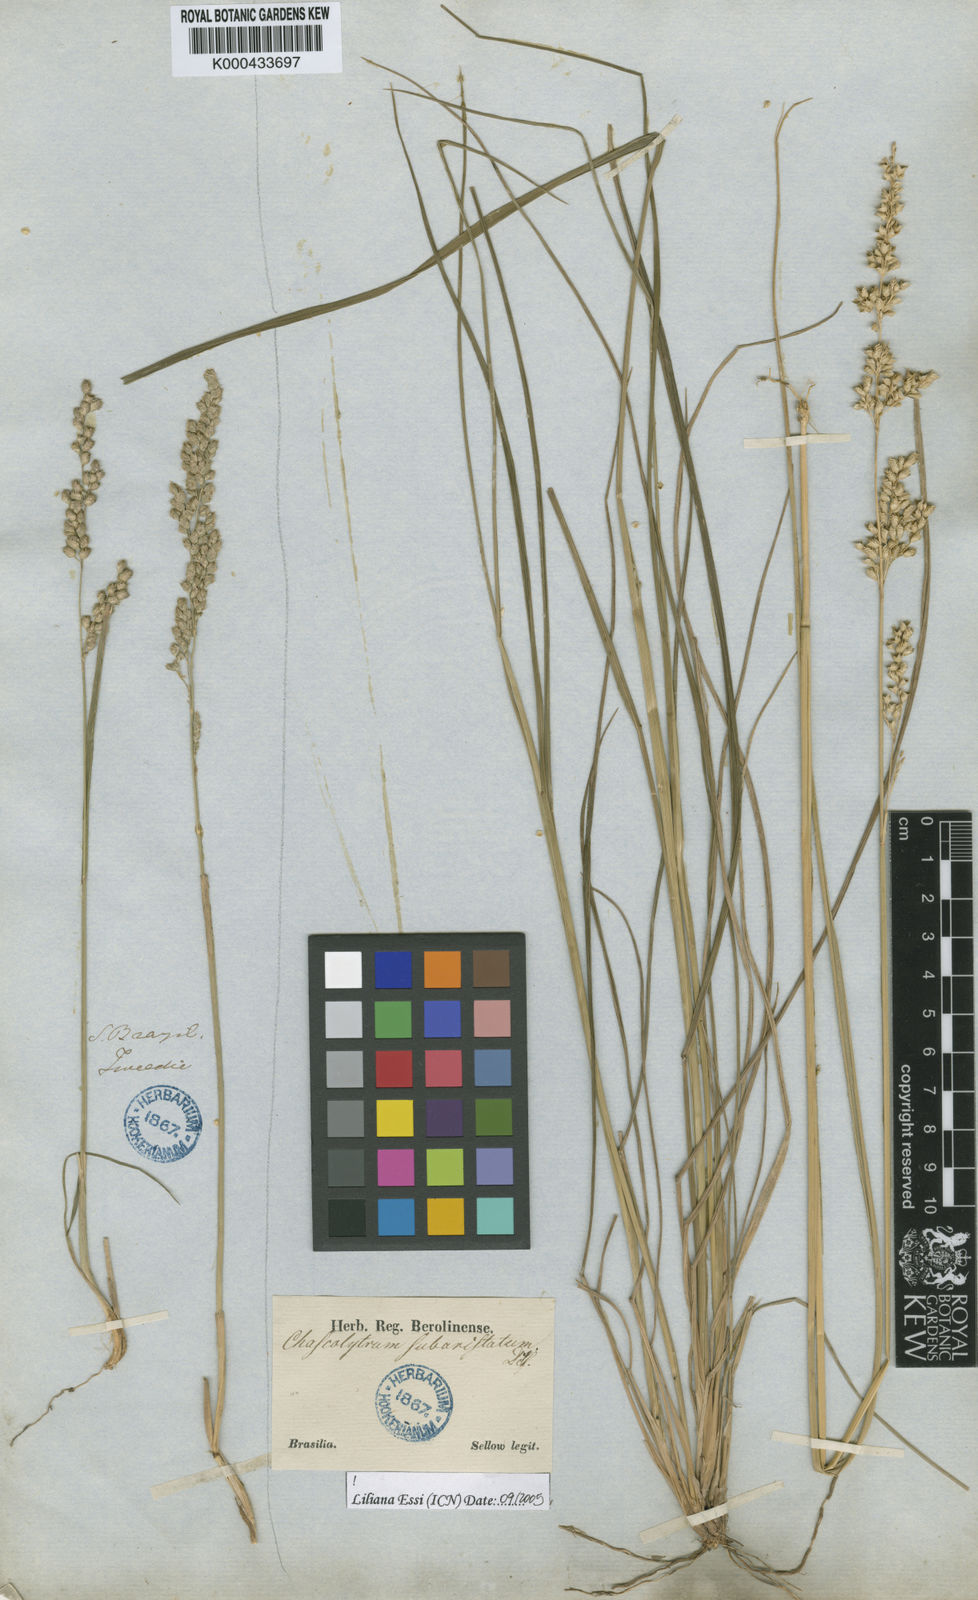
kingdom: Plantae
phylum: Tracheophyta
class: Liliopsida
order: Poales
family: Poaceae
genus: Chascolytrum
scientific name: Chascolytrum subaristatum
